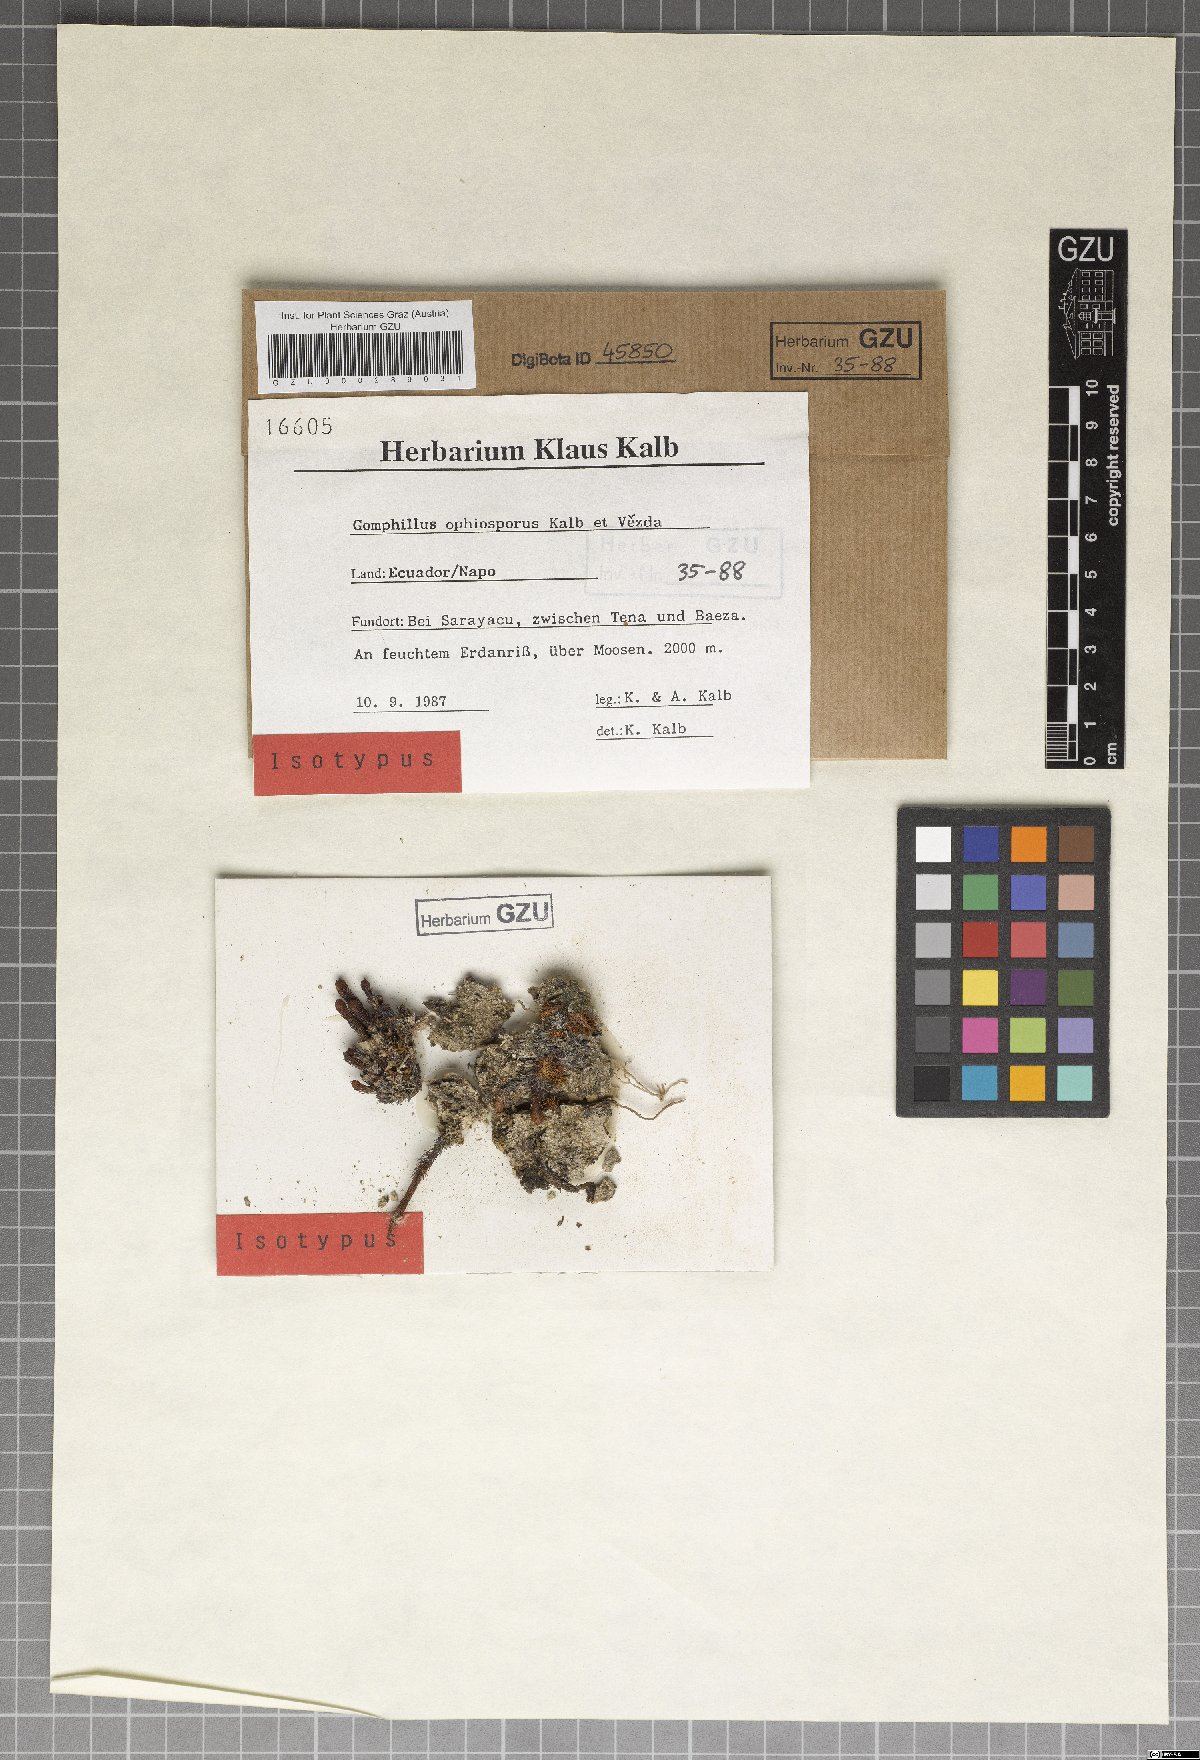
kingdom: Fungi
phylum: Ascomycota
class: Lecanoromycetes
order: Ostropales
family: Gomphillaceae
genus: Gomphillus
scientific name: Gomphillus ophiosporus
